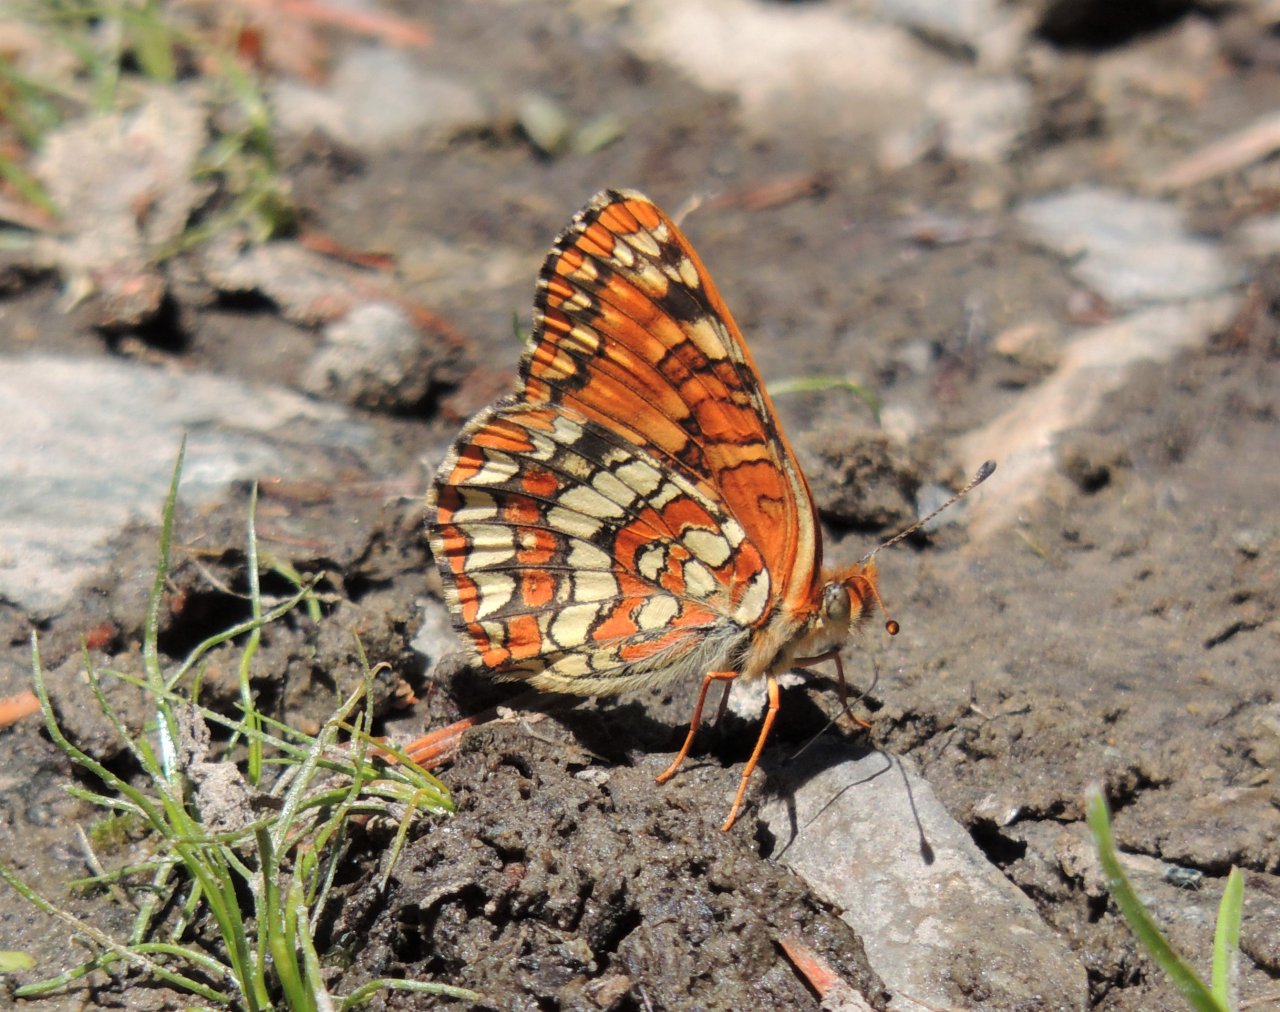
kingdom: Animalia
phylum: Arthropoda
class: Insecta
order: Lepidoptera
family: Nymphalidae
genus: Chlosyne
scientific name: Chlosyne palla
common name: Northern Checkerspot
